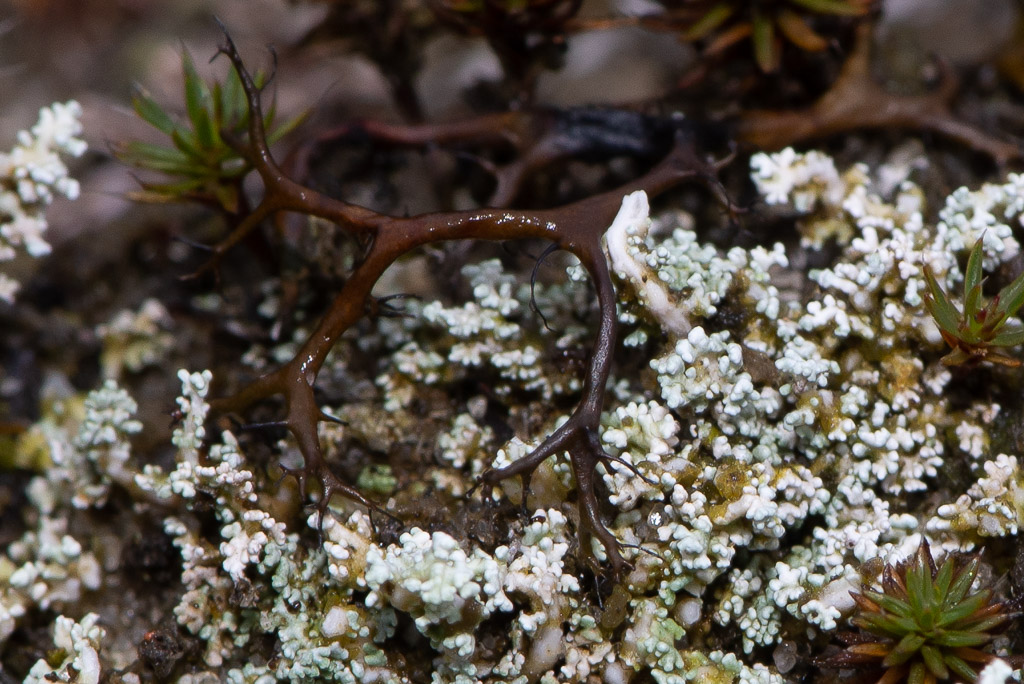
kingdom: Fungi
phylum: Ascomycota
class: Lecanoromycetes
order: Lecanorales
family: Parmeliaceae
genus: Cetraria
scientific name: Cetraria aculeata
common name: grubet tjørnelav
